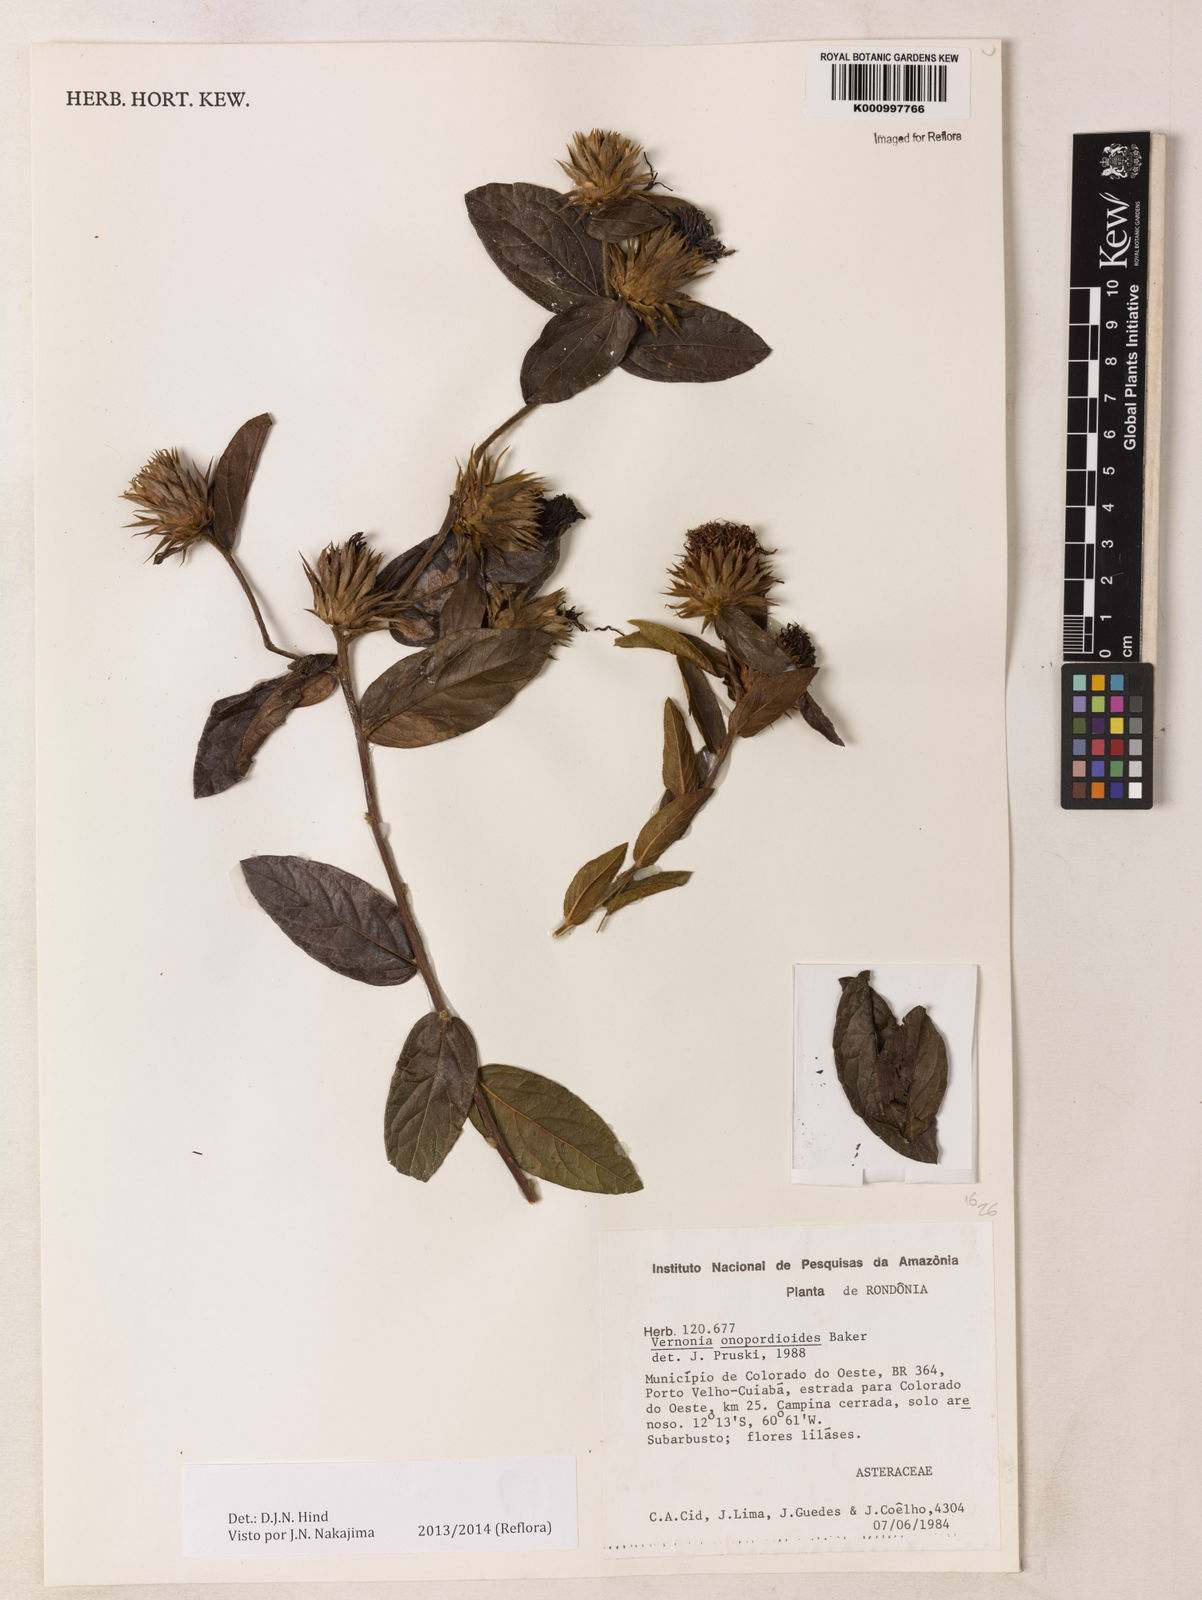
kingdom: Plantae
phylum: Tracheophyta
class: Magnoliopsida
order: Asterales
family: Asteraceae
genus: Lessingianthus
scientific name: Lessingianthus onopordioides
